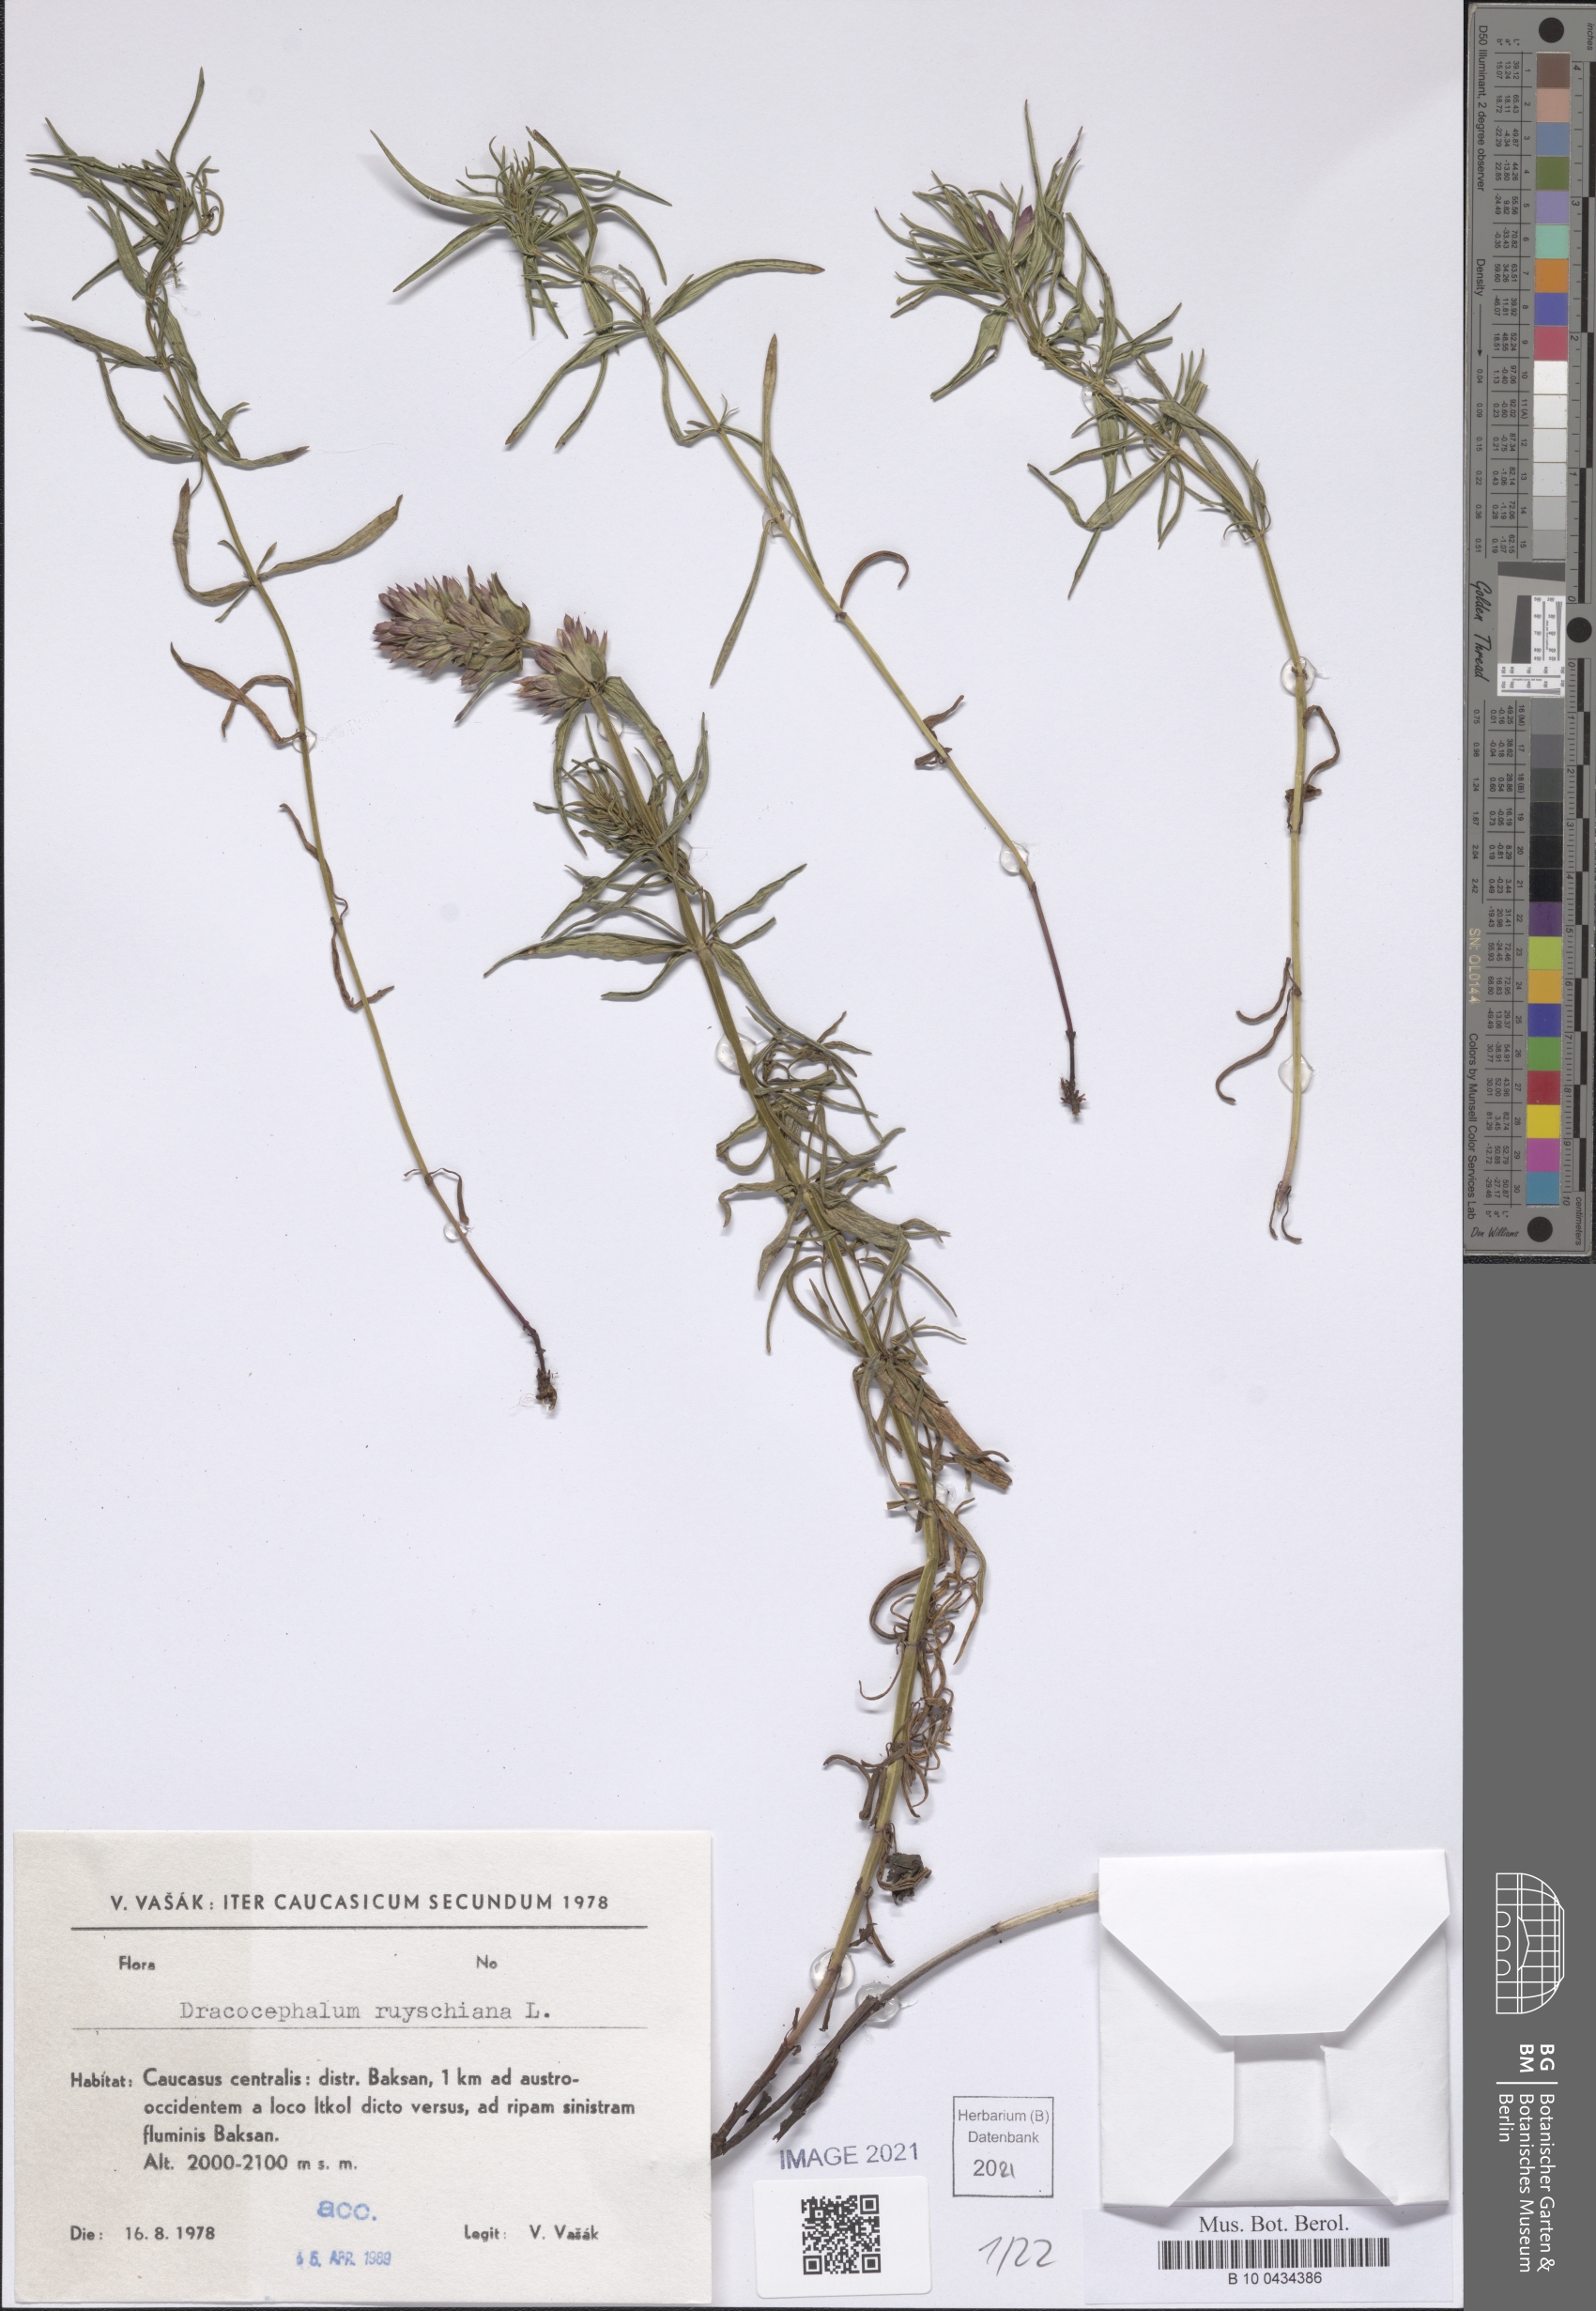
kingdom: Plantae
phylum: Tracheophyta
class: Magnoliopsida
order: Lamiales
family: Lamiaceae
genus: Dracocephalum
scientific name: Dracocephalum ruyschiana
